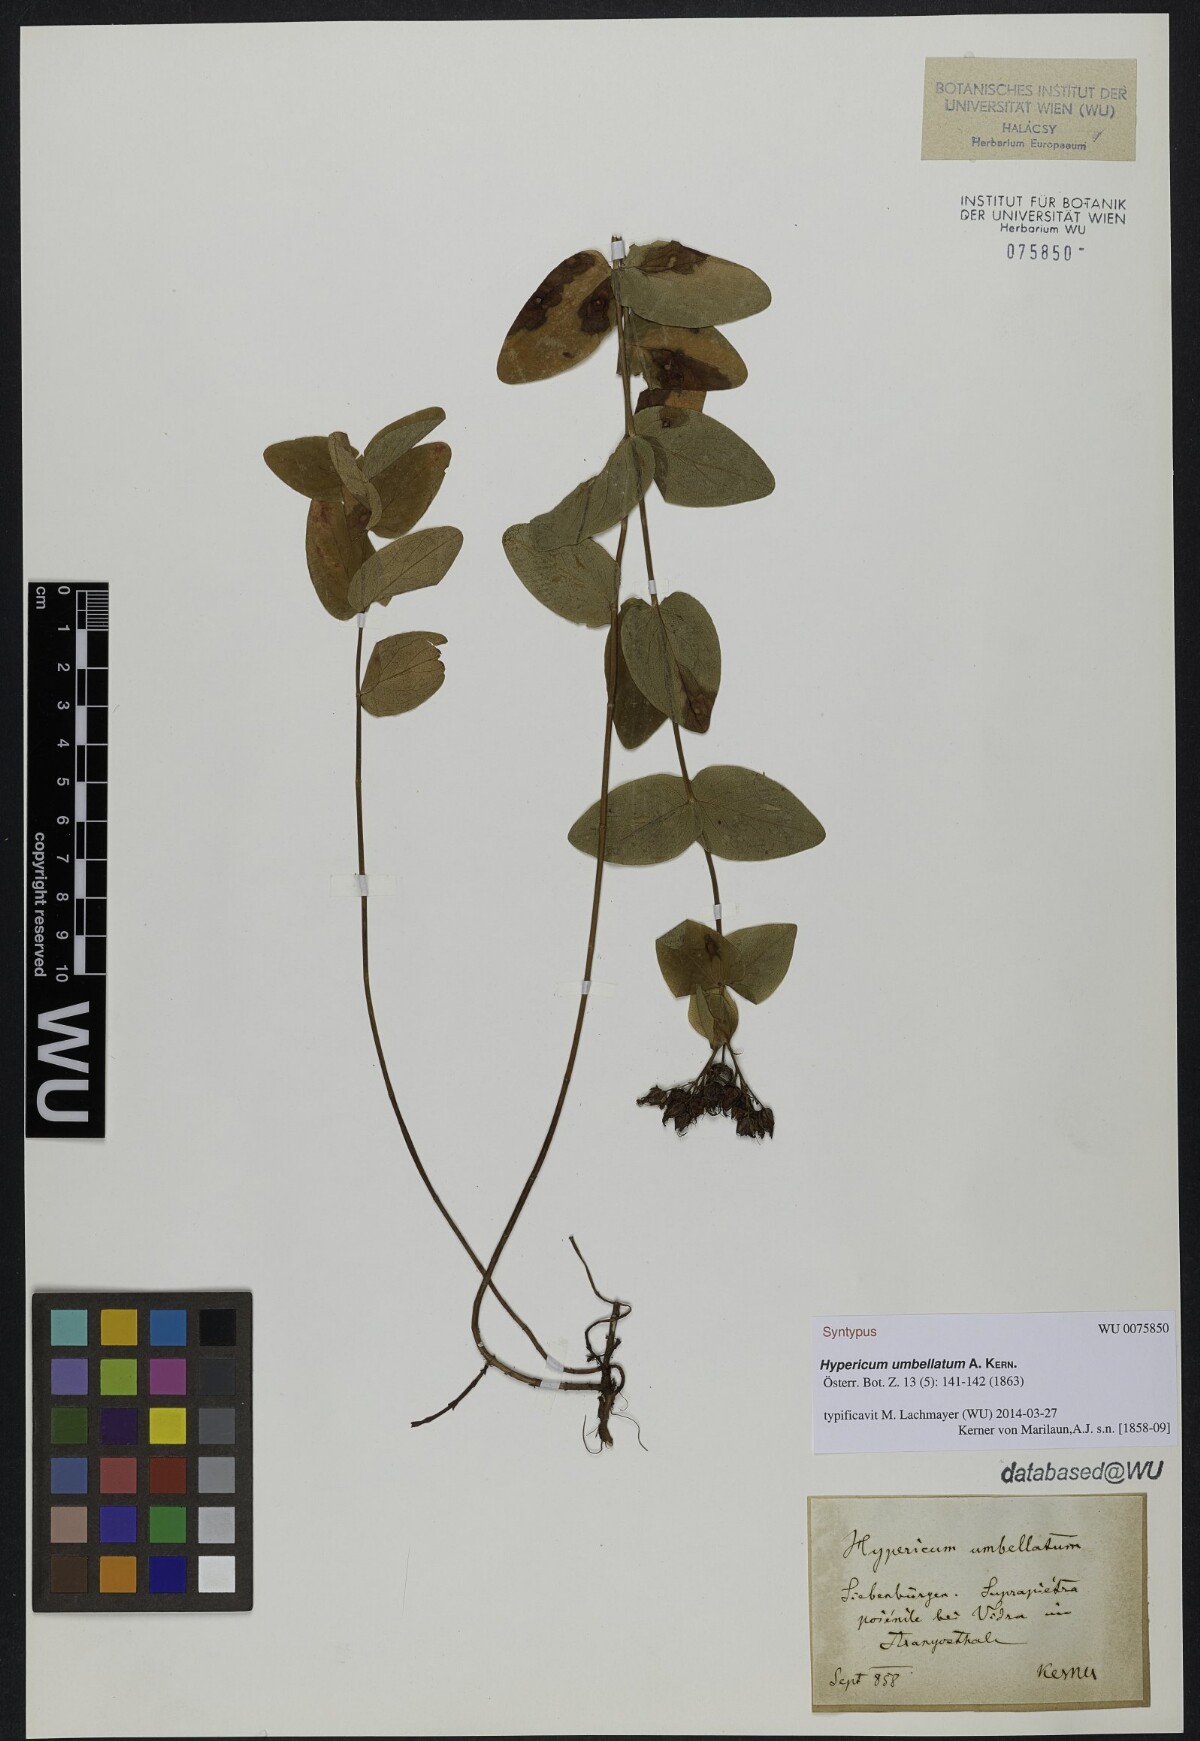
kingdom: Plantae
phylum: Tracheophyta
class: Magnoliopsida
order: Malpighiales
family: Hypericaceae
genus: Hypericum
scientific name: Hypericum umbellatum
